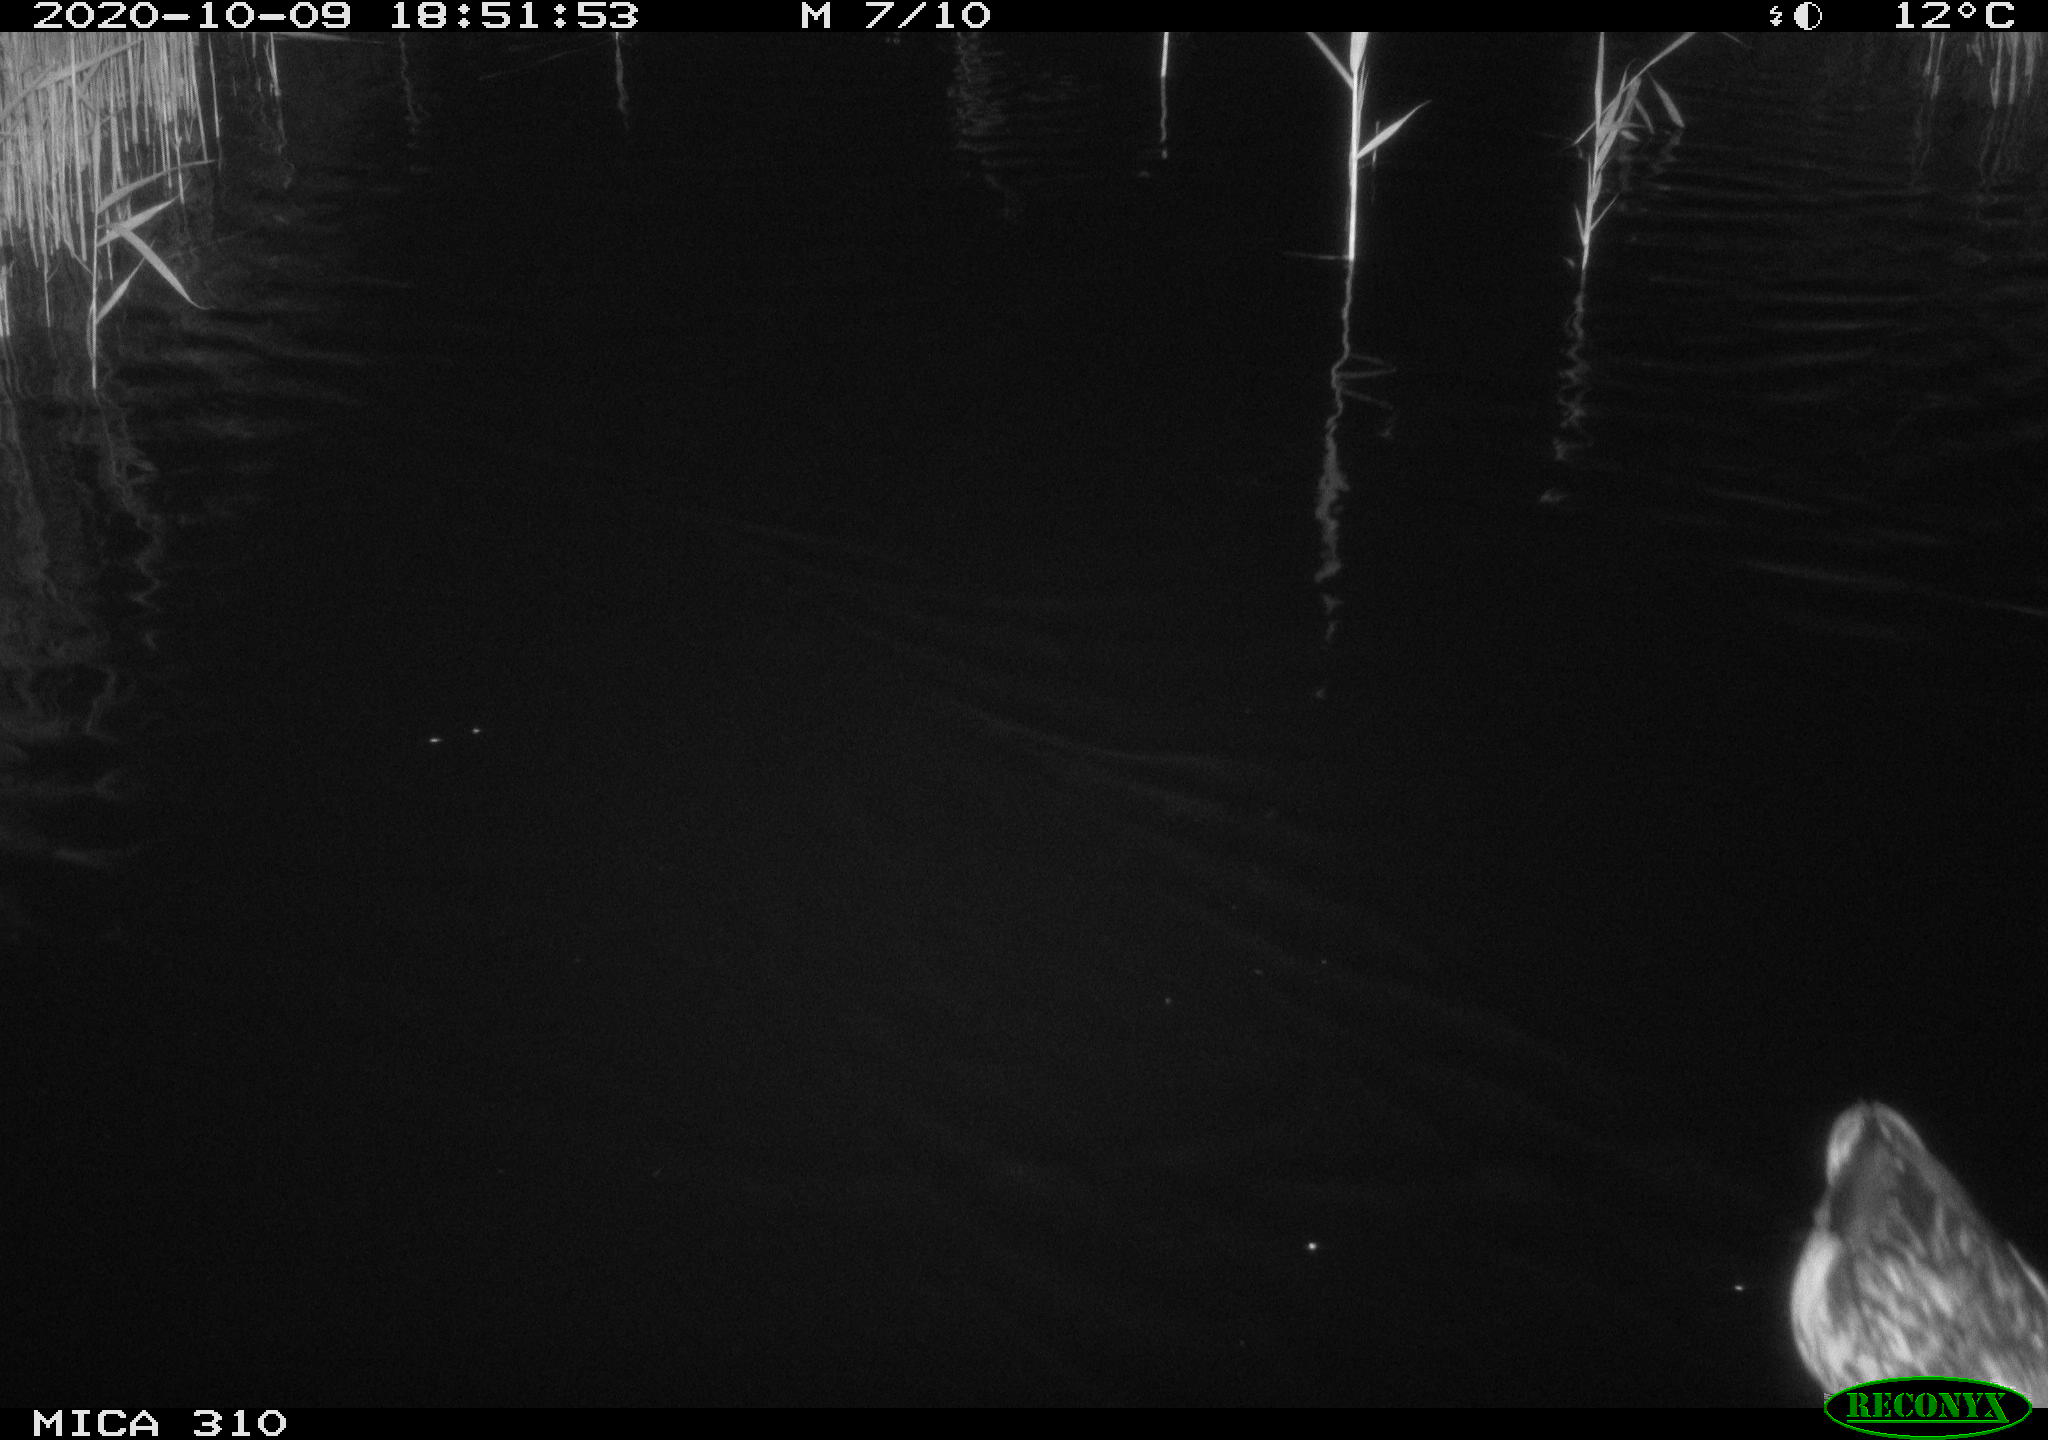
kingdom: Animalia
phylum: Chordata
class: Aves
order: Anseriformes
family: Anatidae
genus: Anas
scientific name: Anas platyrhynchos
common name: Mallard
